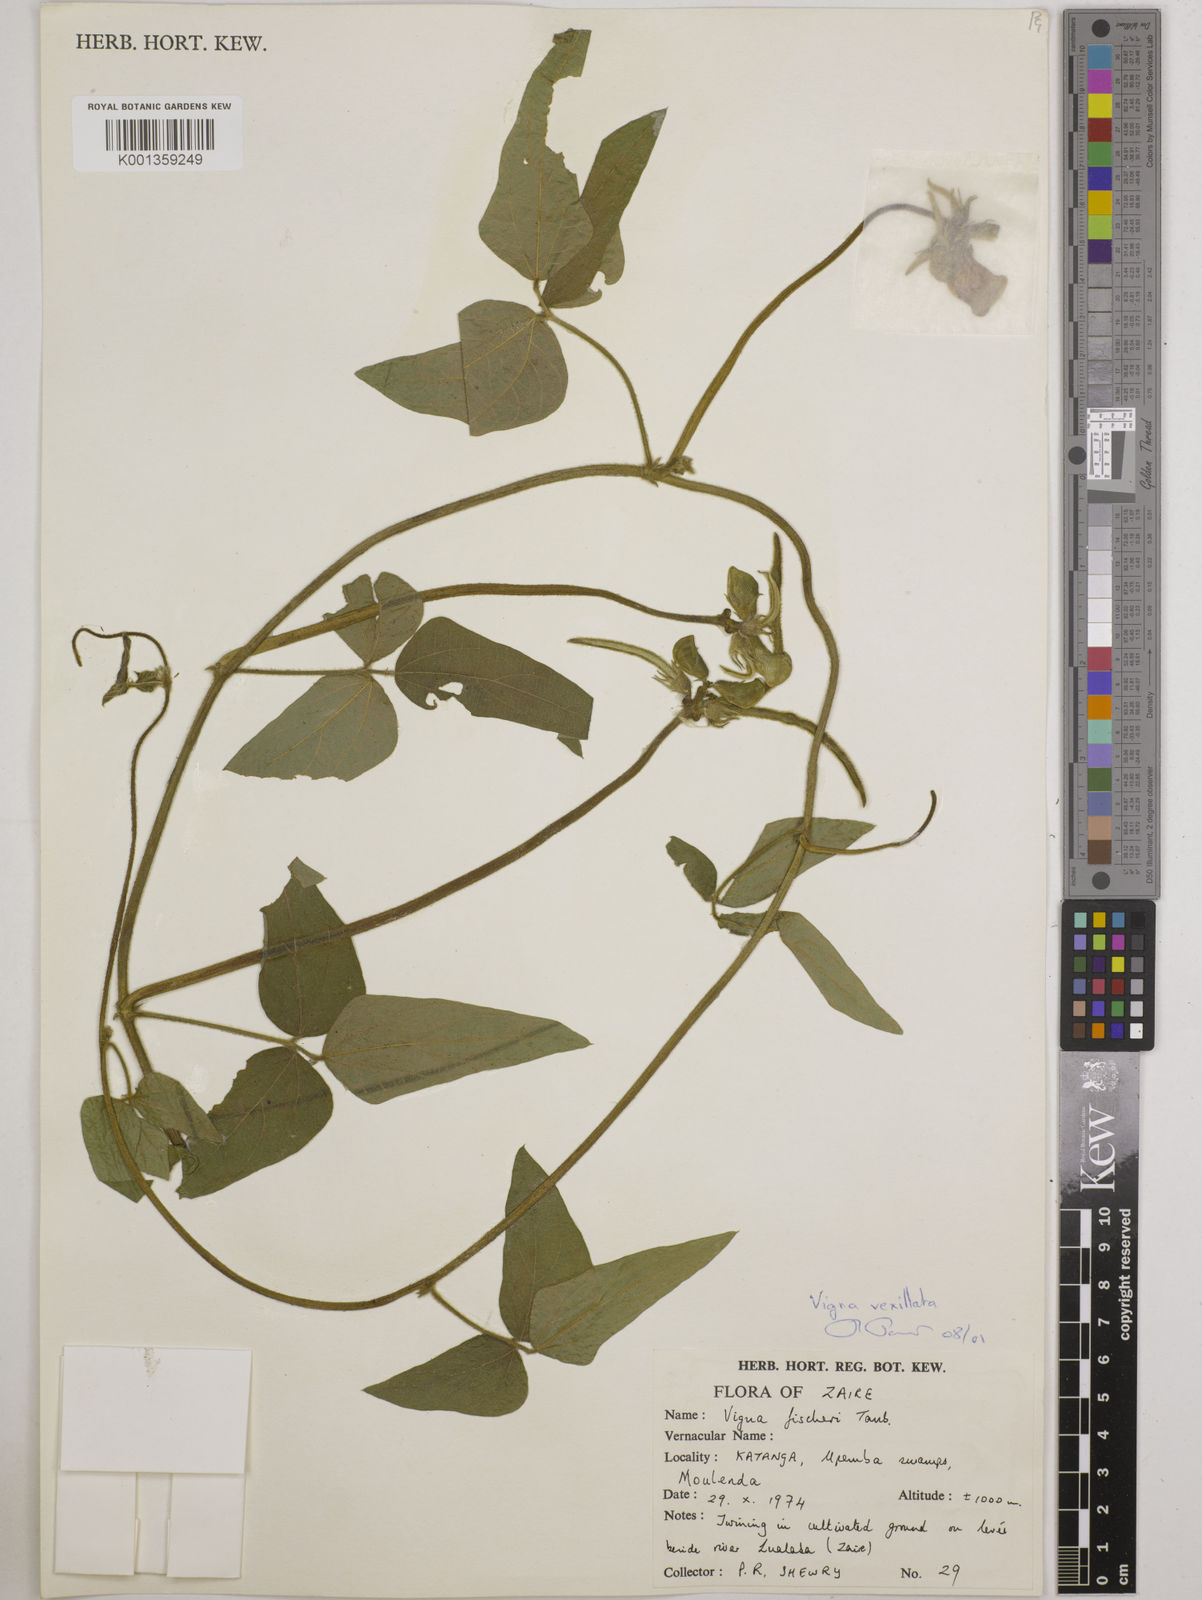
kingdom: Plantae
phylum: Tracheophyta
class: Magnoliopsida
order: Fabales
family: Fabaceae
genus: Vigna
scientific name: Vigna vexillata
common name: Zombi pea
